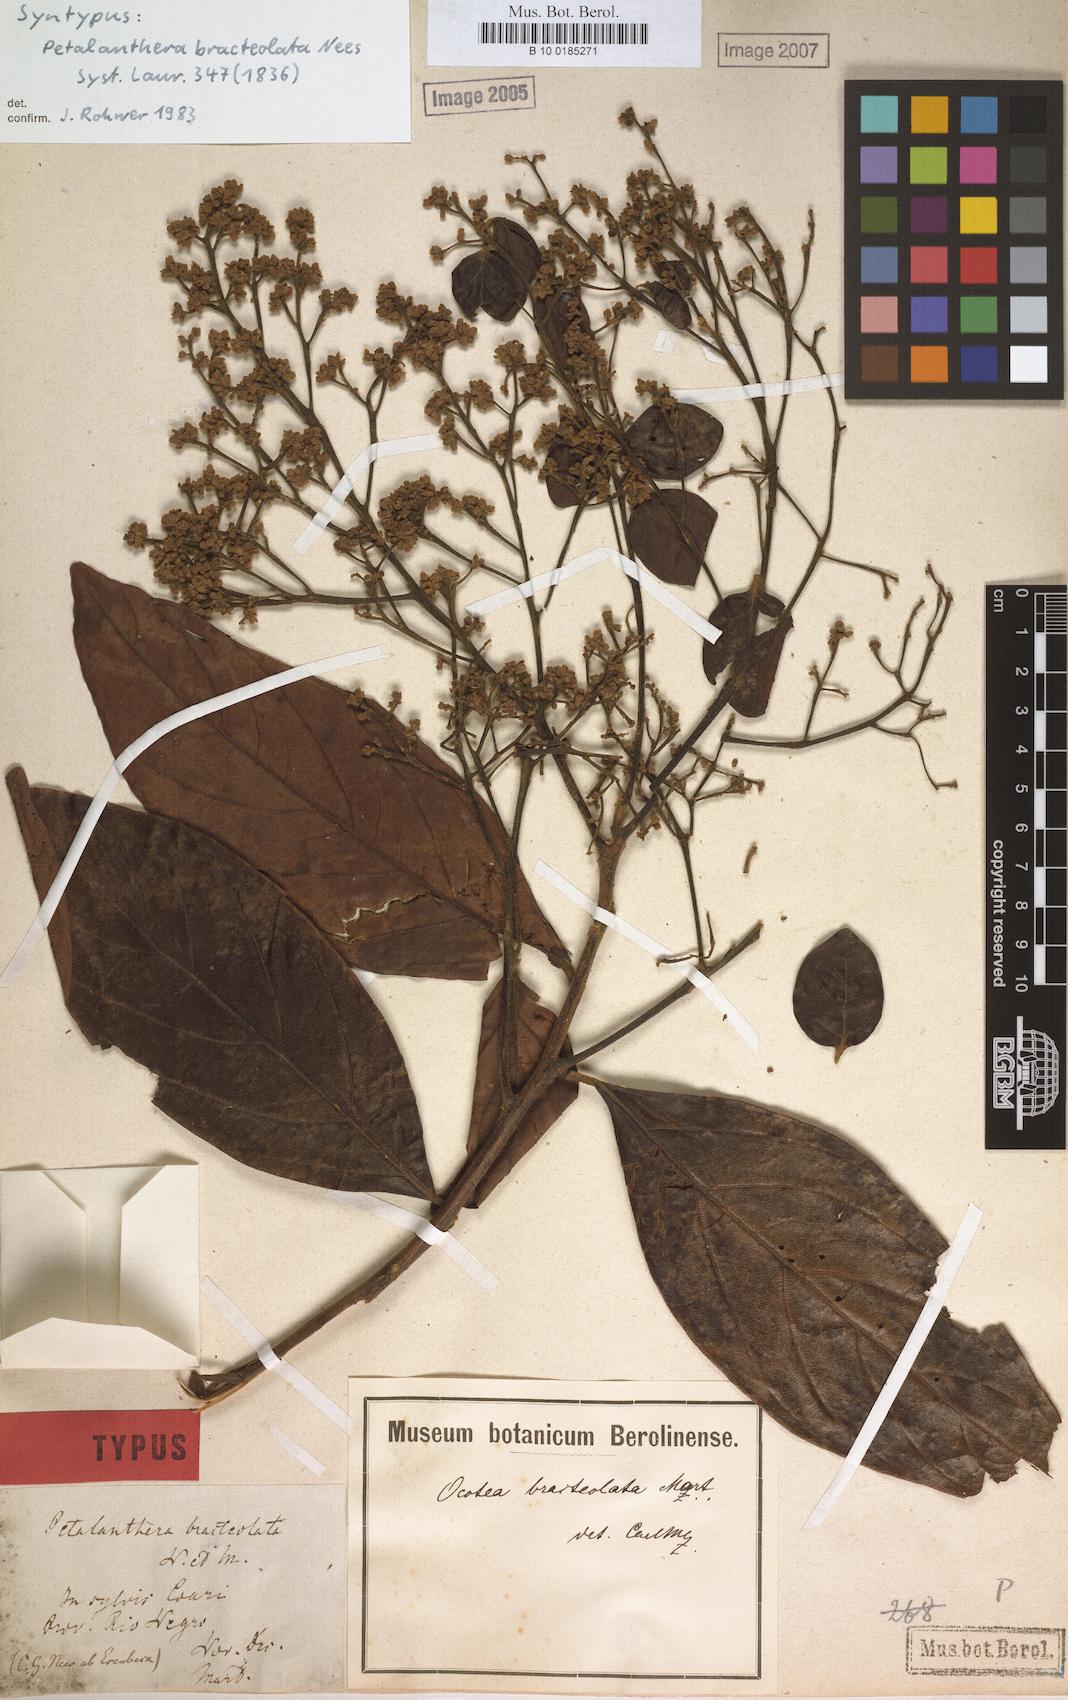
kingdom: Plantae
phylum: Tracheophyta
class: Magnoliopsida
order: Laurales
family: Lauraceae
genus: Ocotea
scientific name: Ocotea petalanthera
